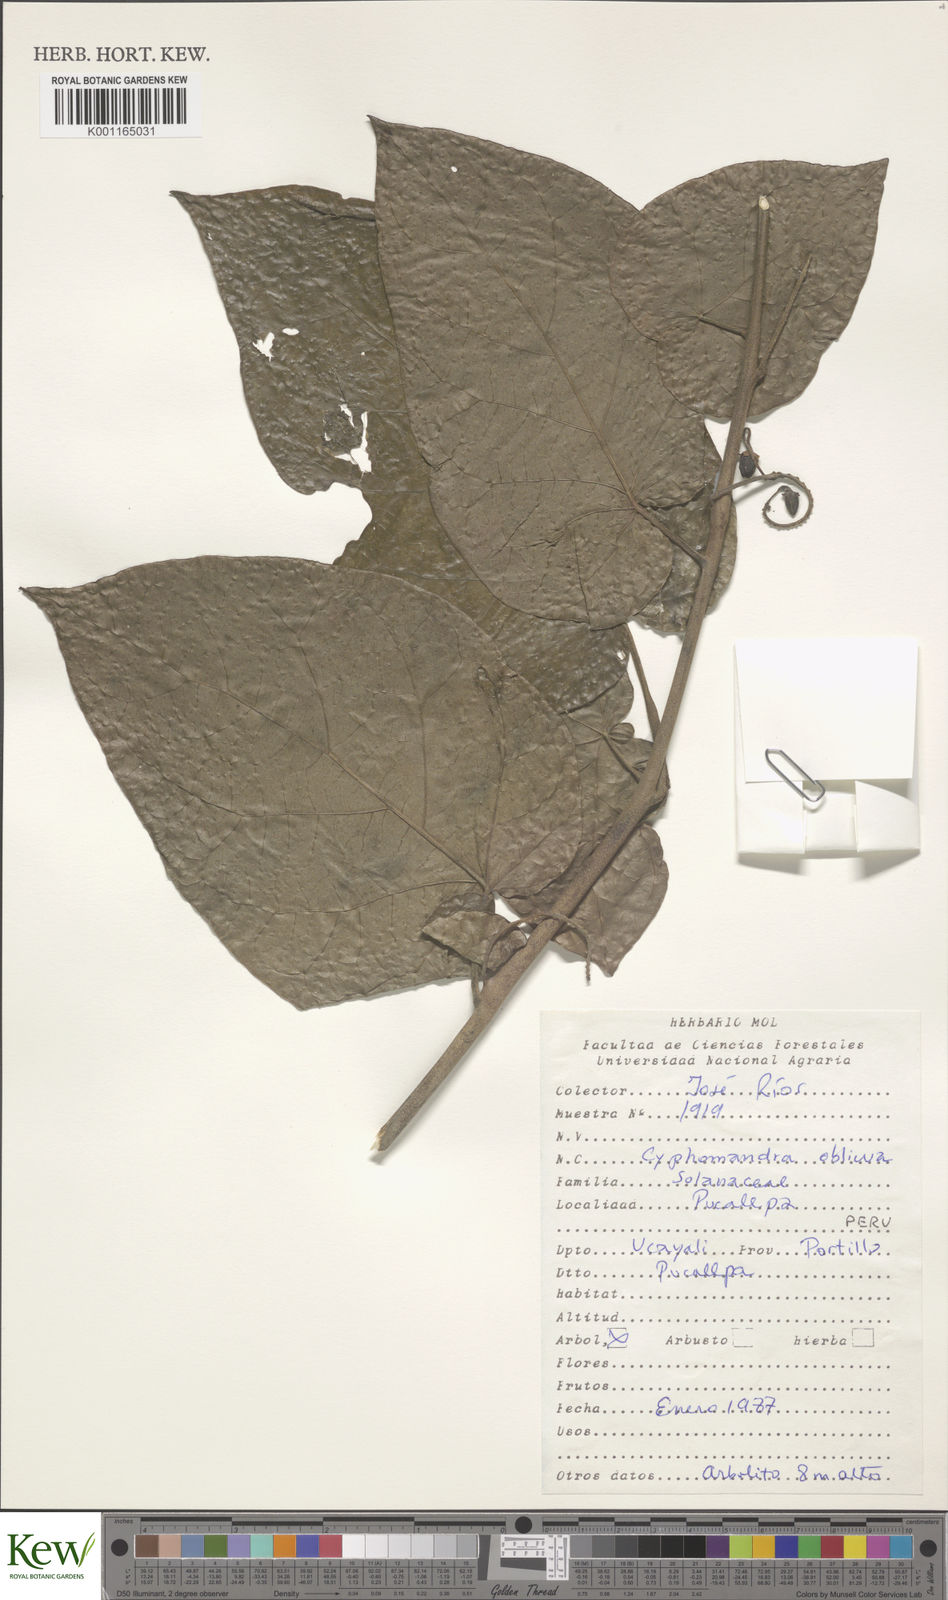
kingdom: Plantae
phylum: Tracheophyta
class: Magnoliopsida
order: Solanales
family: Solanaceae
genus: Solanum
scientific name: Solanum obliquum
